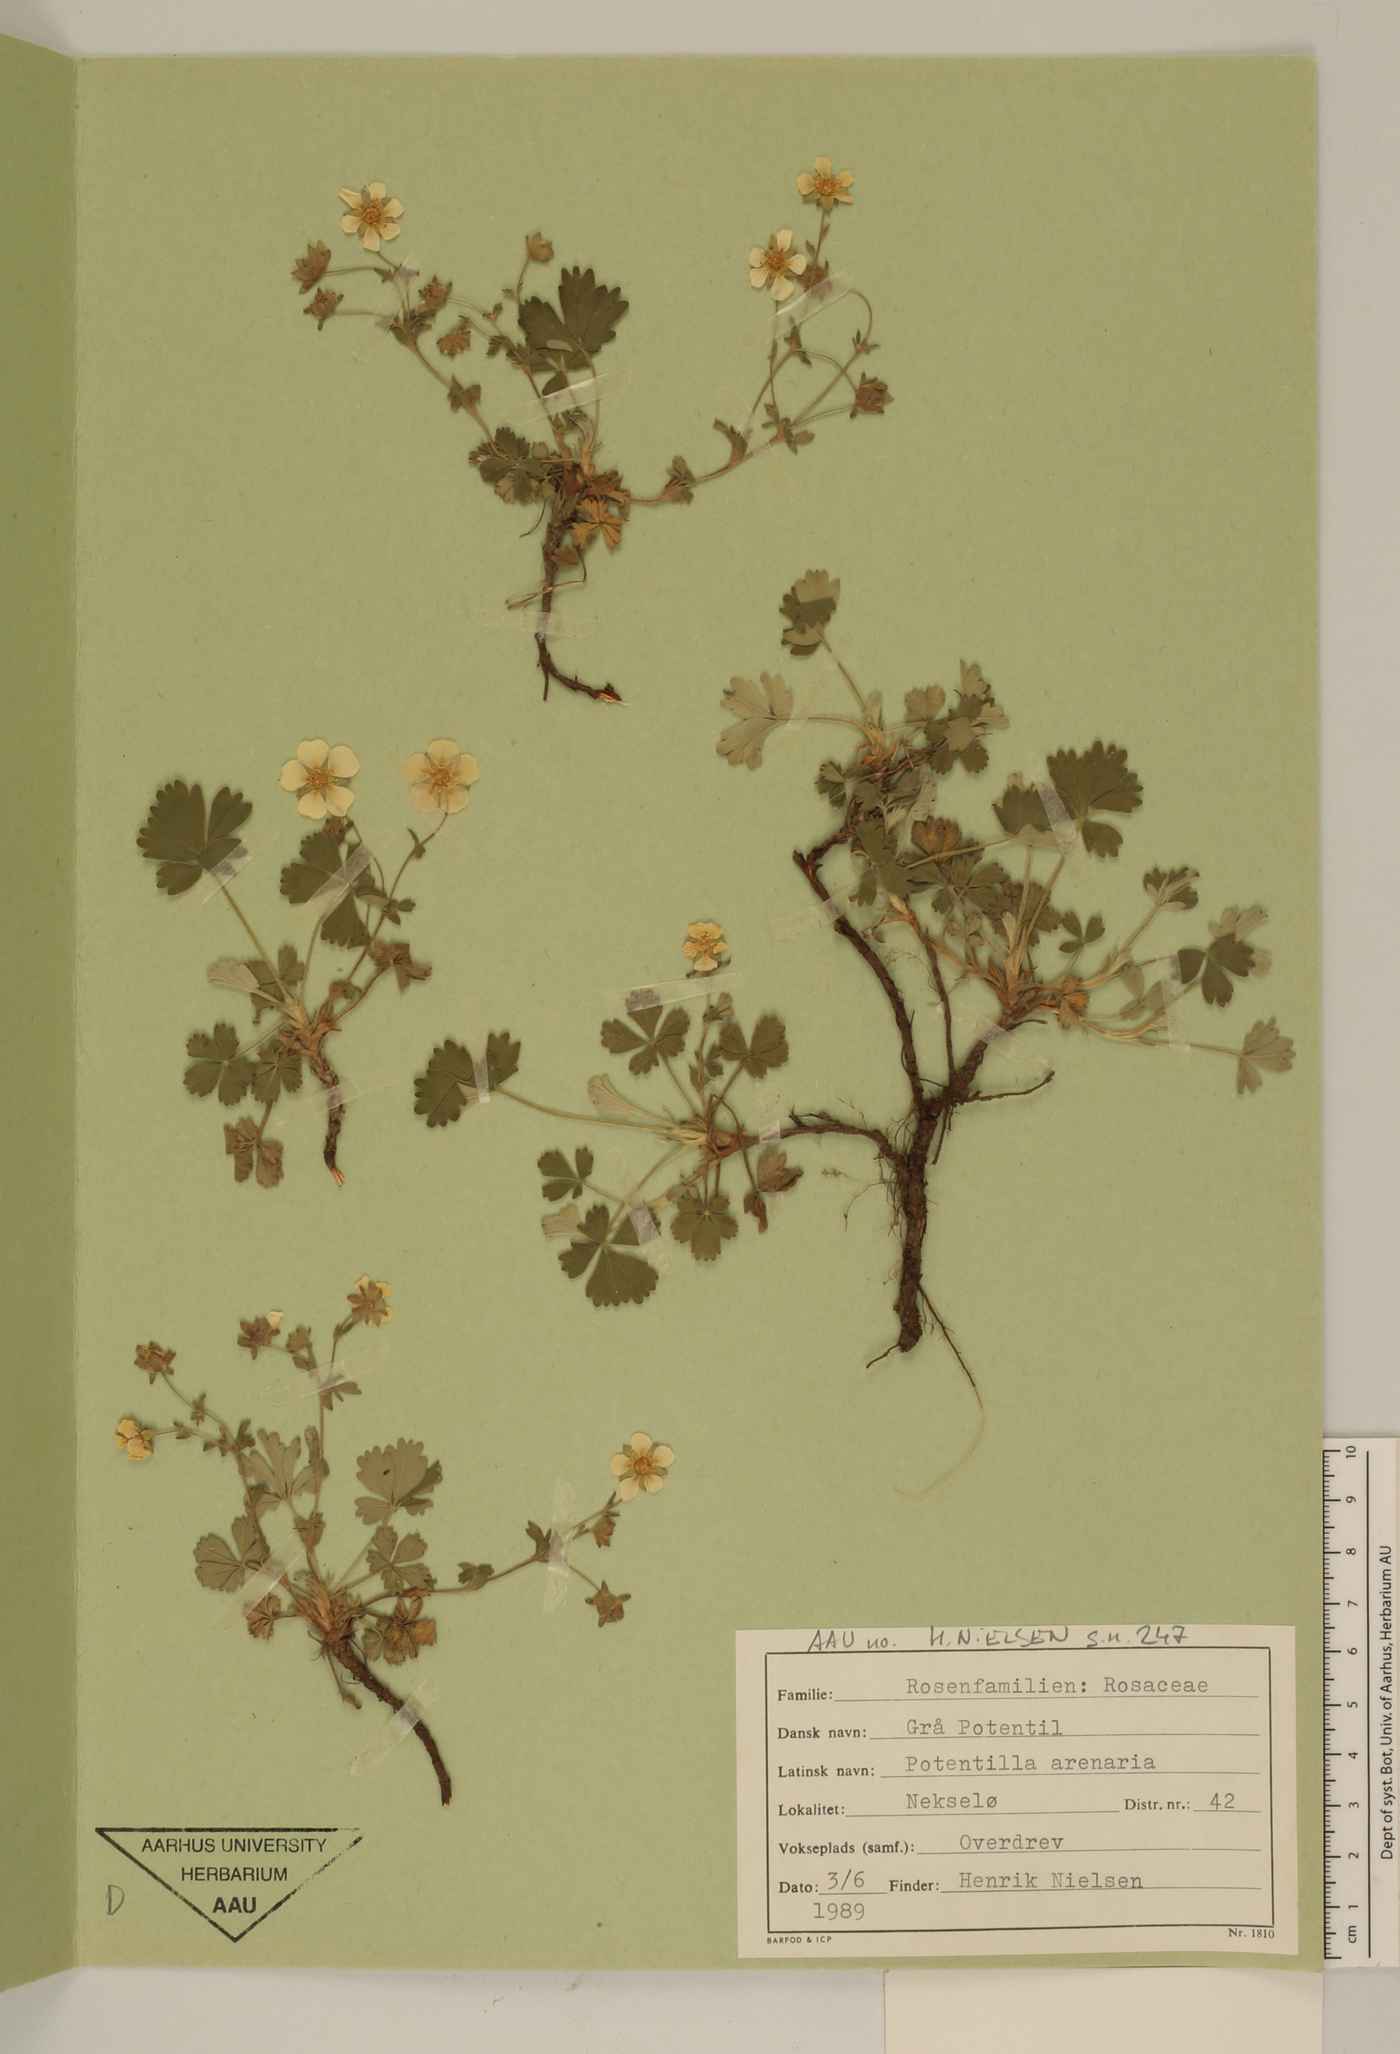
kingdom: Plantae
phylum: Tracheophyta
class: Magnoliopsida
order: Rosales
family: Rosaceae
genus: Potentilla
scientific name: Potentilla cinerea
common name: Ashy cinquefoil
